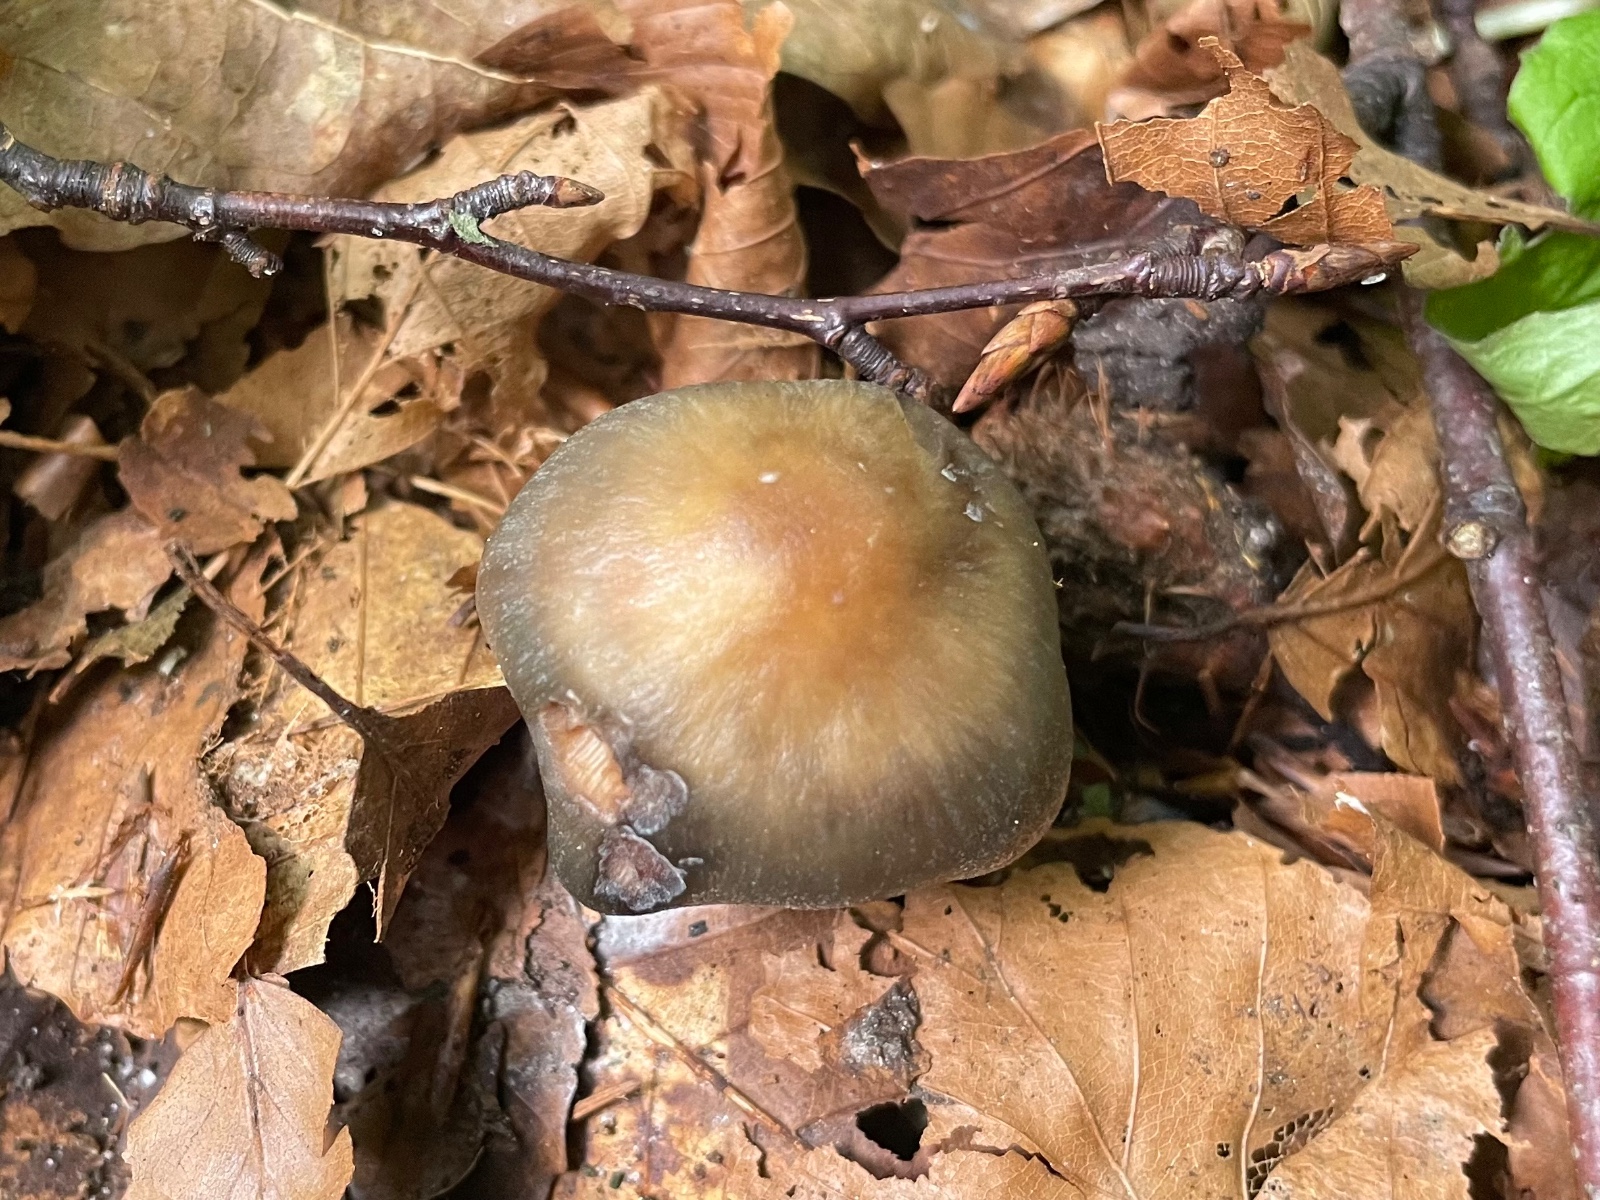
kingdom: Fungi
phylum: Basidiomycota
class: Agaricomycetes
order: Agaricales
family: Omphalotaceae
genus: Rhodocollybia
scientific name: Rhodocollybia butyracea
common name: keglestokket fladhat
